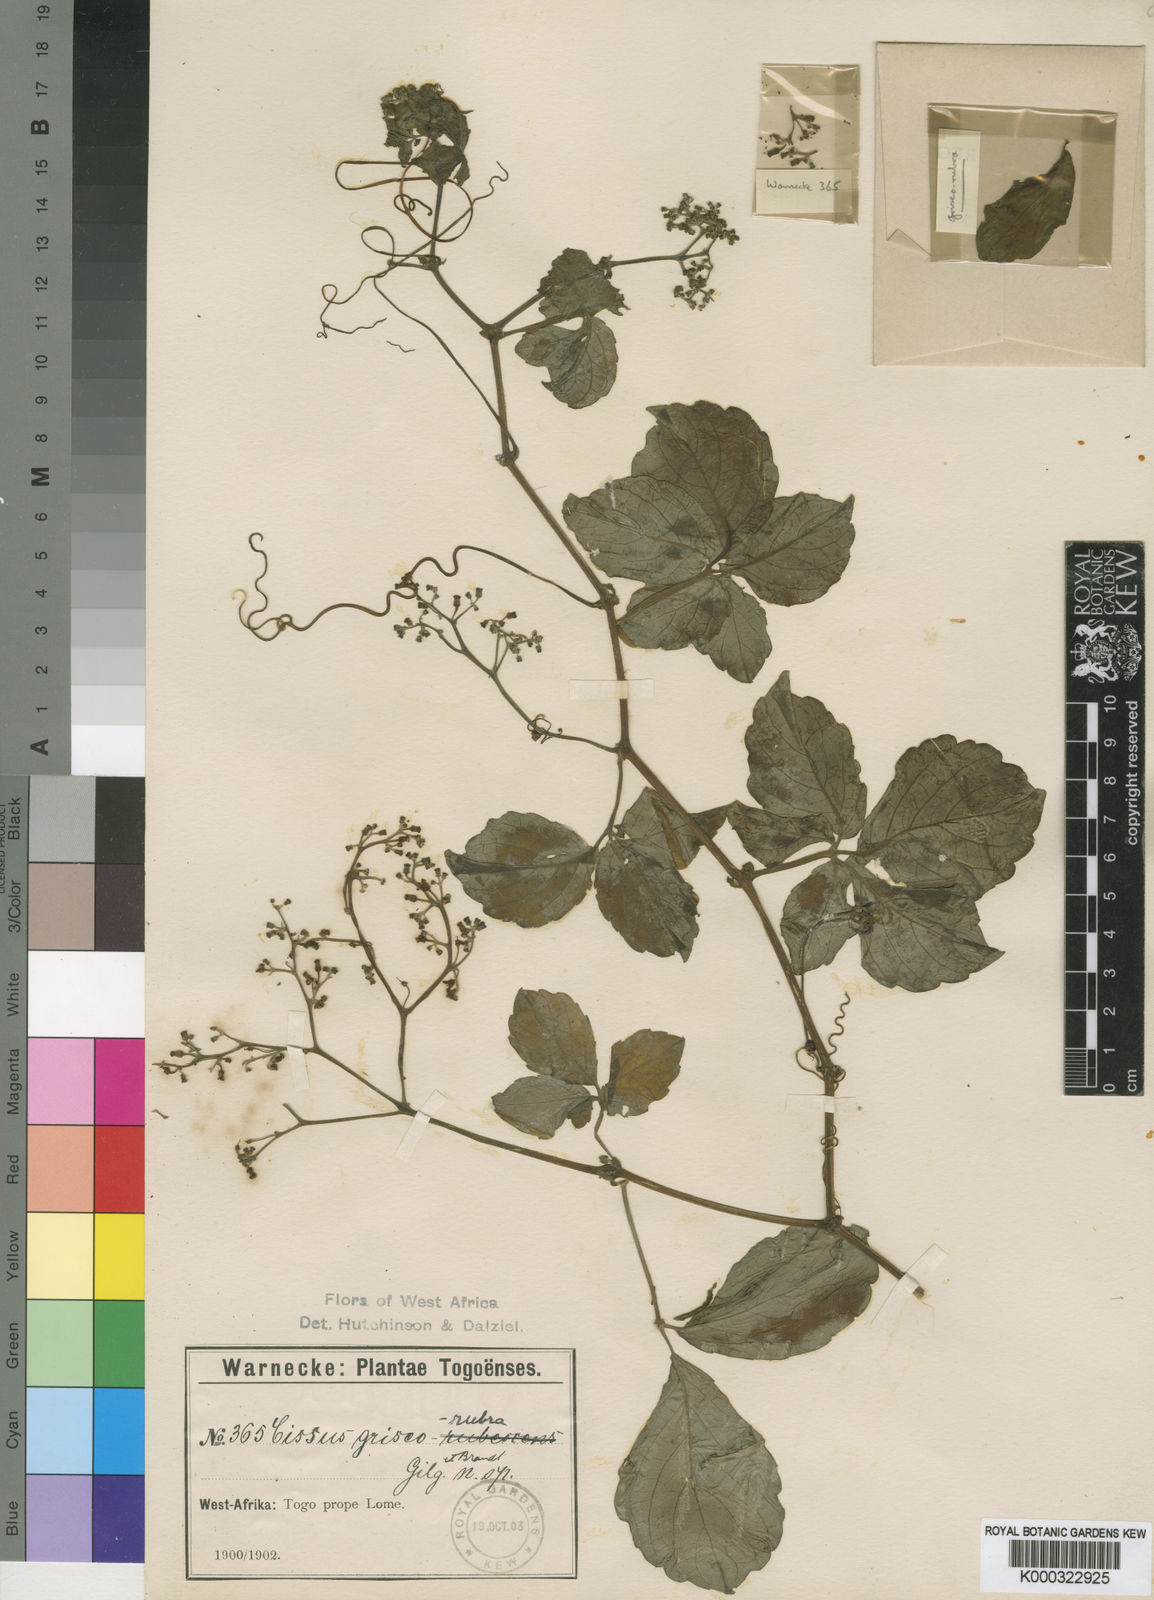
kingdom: Plantae
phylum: Tracheophyta
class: Magnoliopsida
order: Vitales
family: Vitaceae
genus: Cyphostemma
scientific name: Cyphostemma griseorubrum
